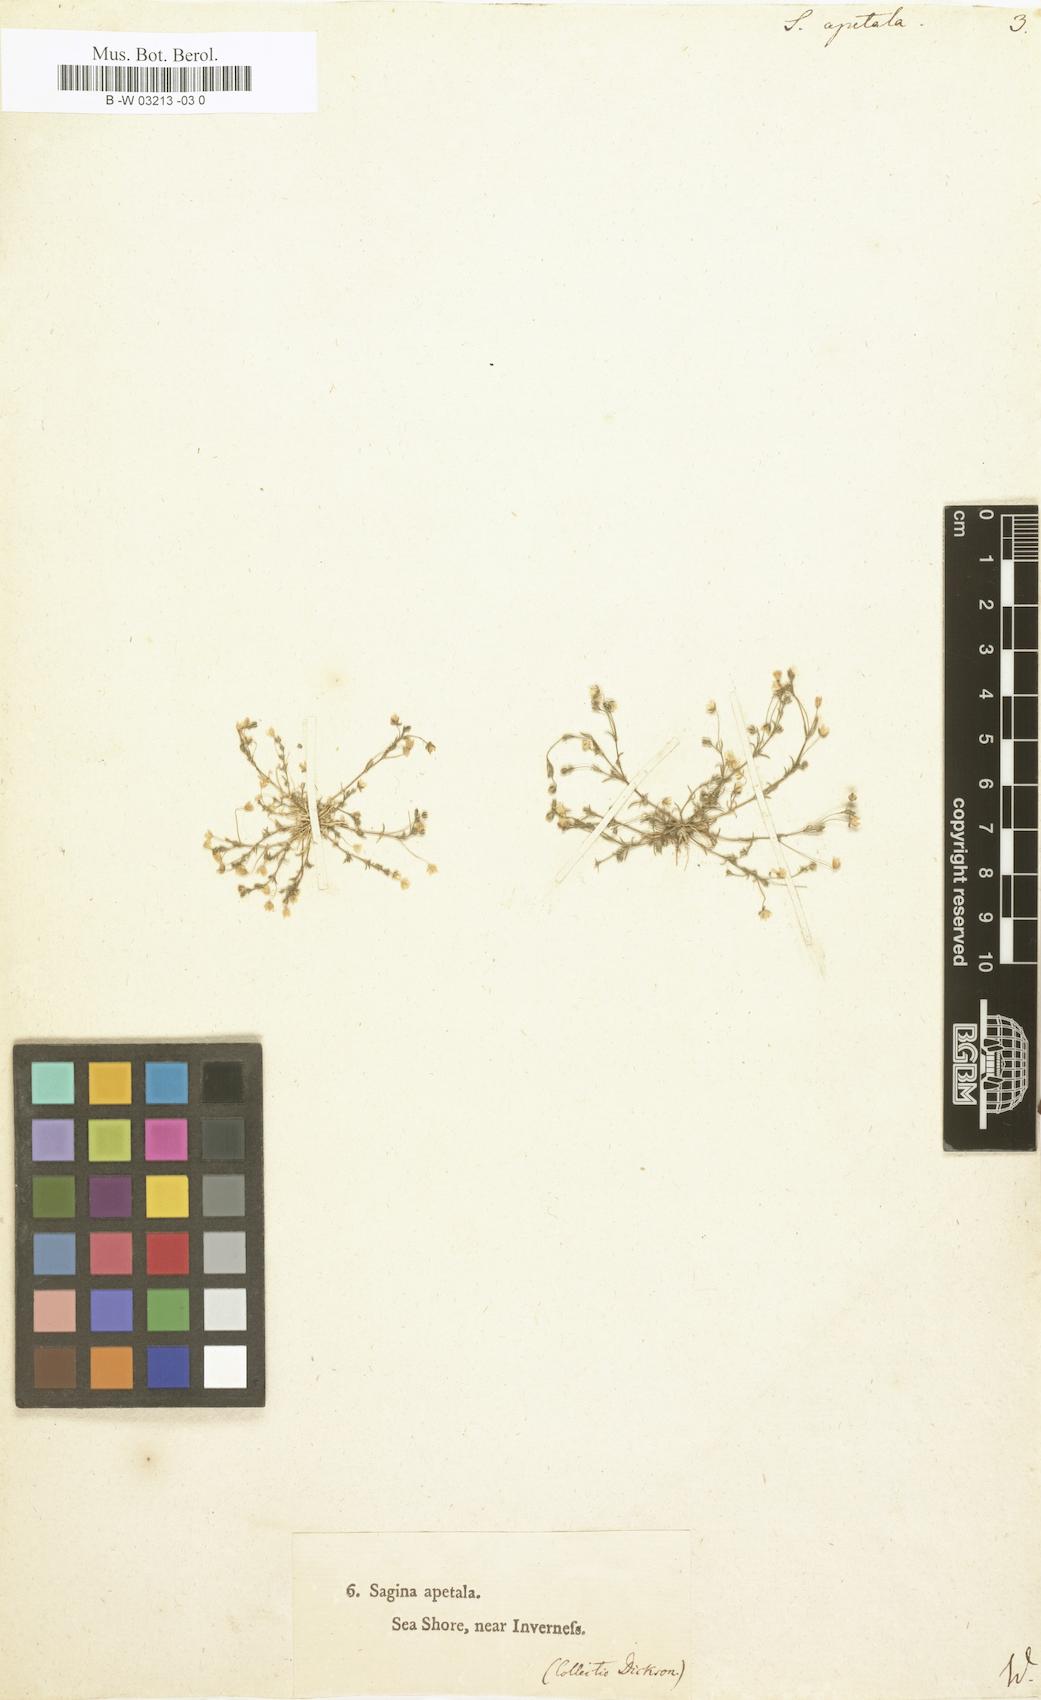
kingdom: Plantae
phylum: Tracheophyta
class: Magnoliopsida
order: Caryophyllales
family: Caryophyllaceae
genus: Sagina
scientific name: Sagina apetala
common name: Annual pearlwort
